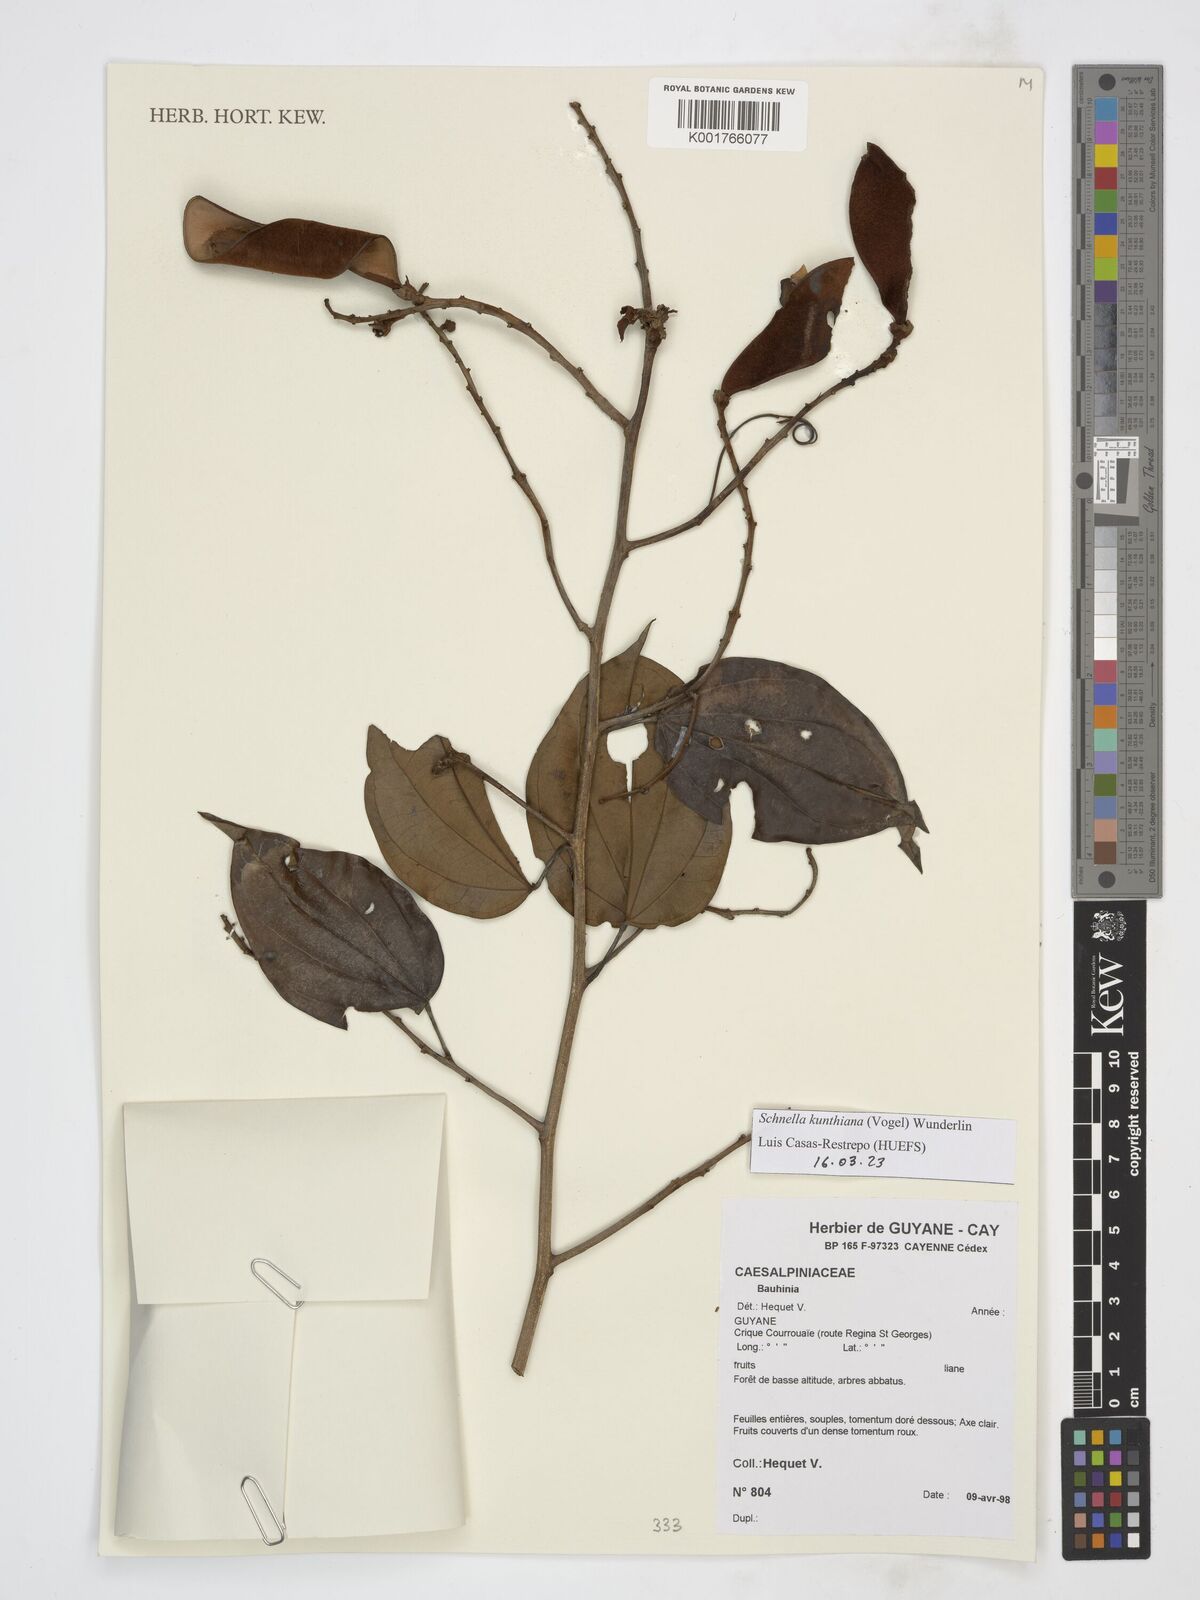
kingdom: Plantae
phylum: Tracheophyta
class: Magnoliopsida
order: Fabales
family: Fabaceae
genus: Schnella
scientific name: Schnella kunthiana
